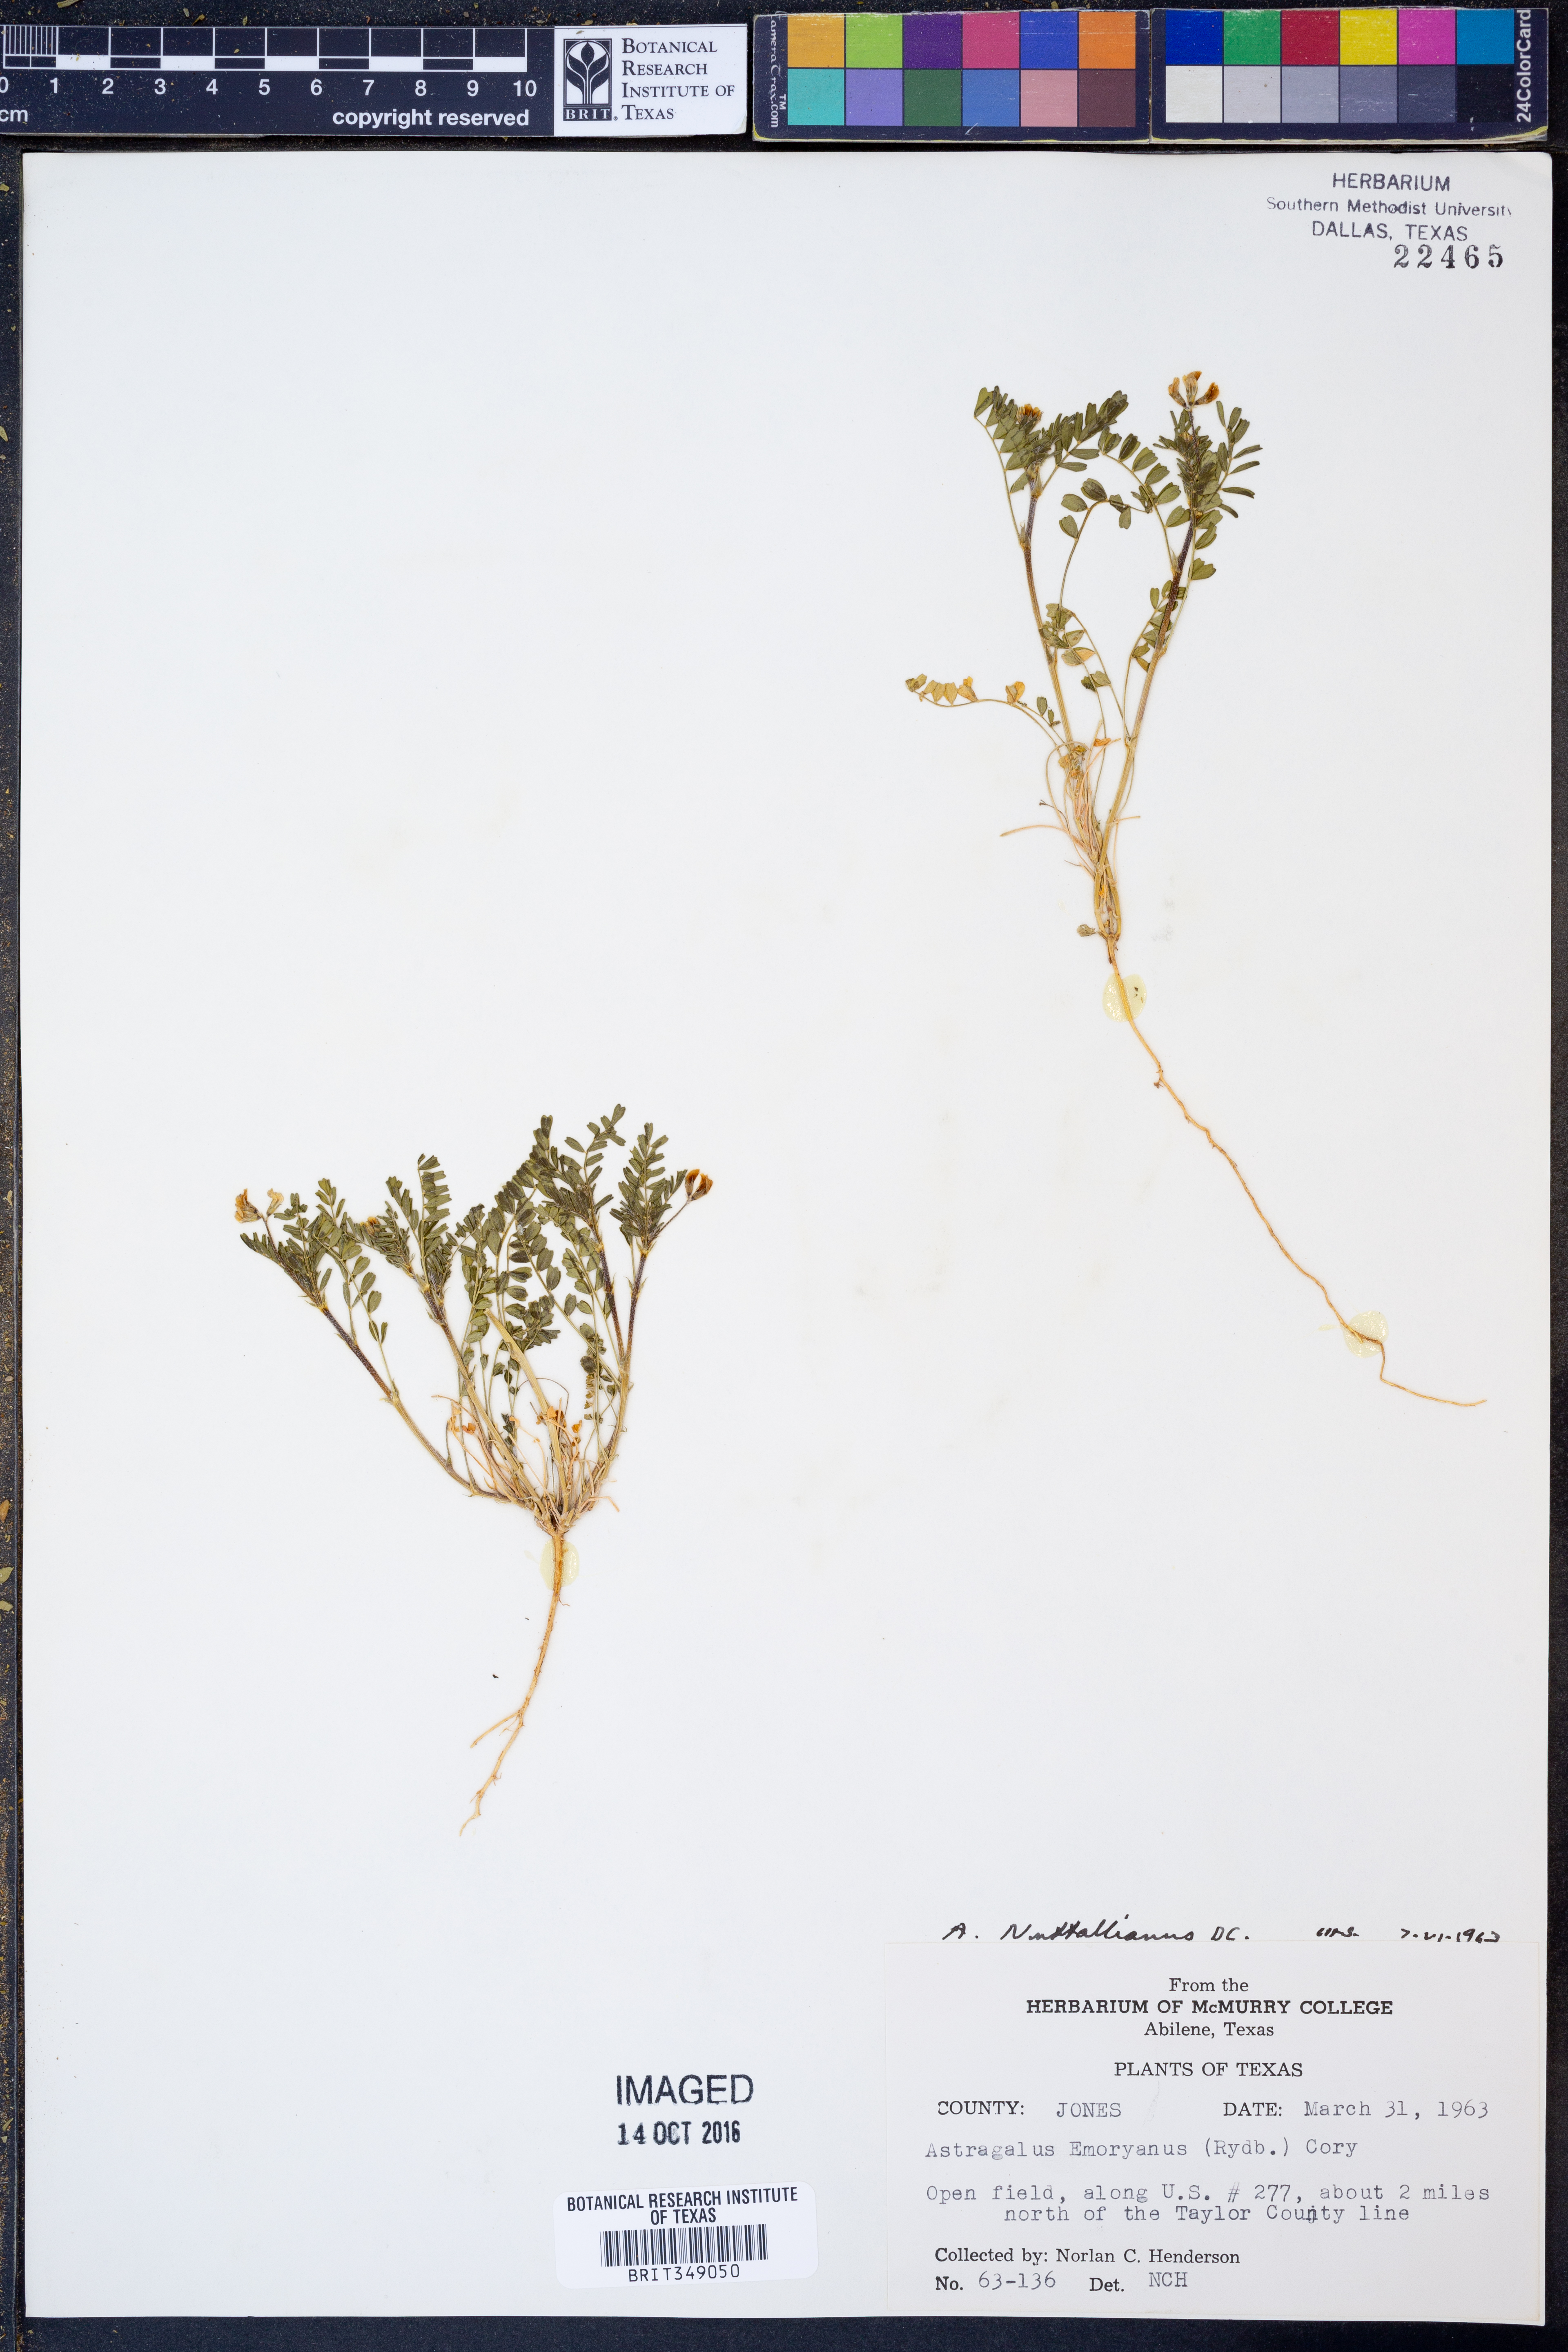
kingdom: Plantae
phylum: Tracheophyta
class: Magnoliopsida
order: Fabales
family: Fabaceae
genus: Astragalus
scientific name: Astragalus nuttallianus
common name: Smallflowered milkvetch
